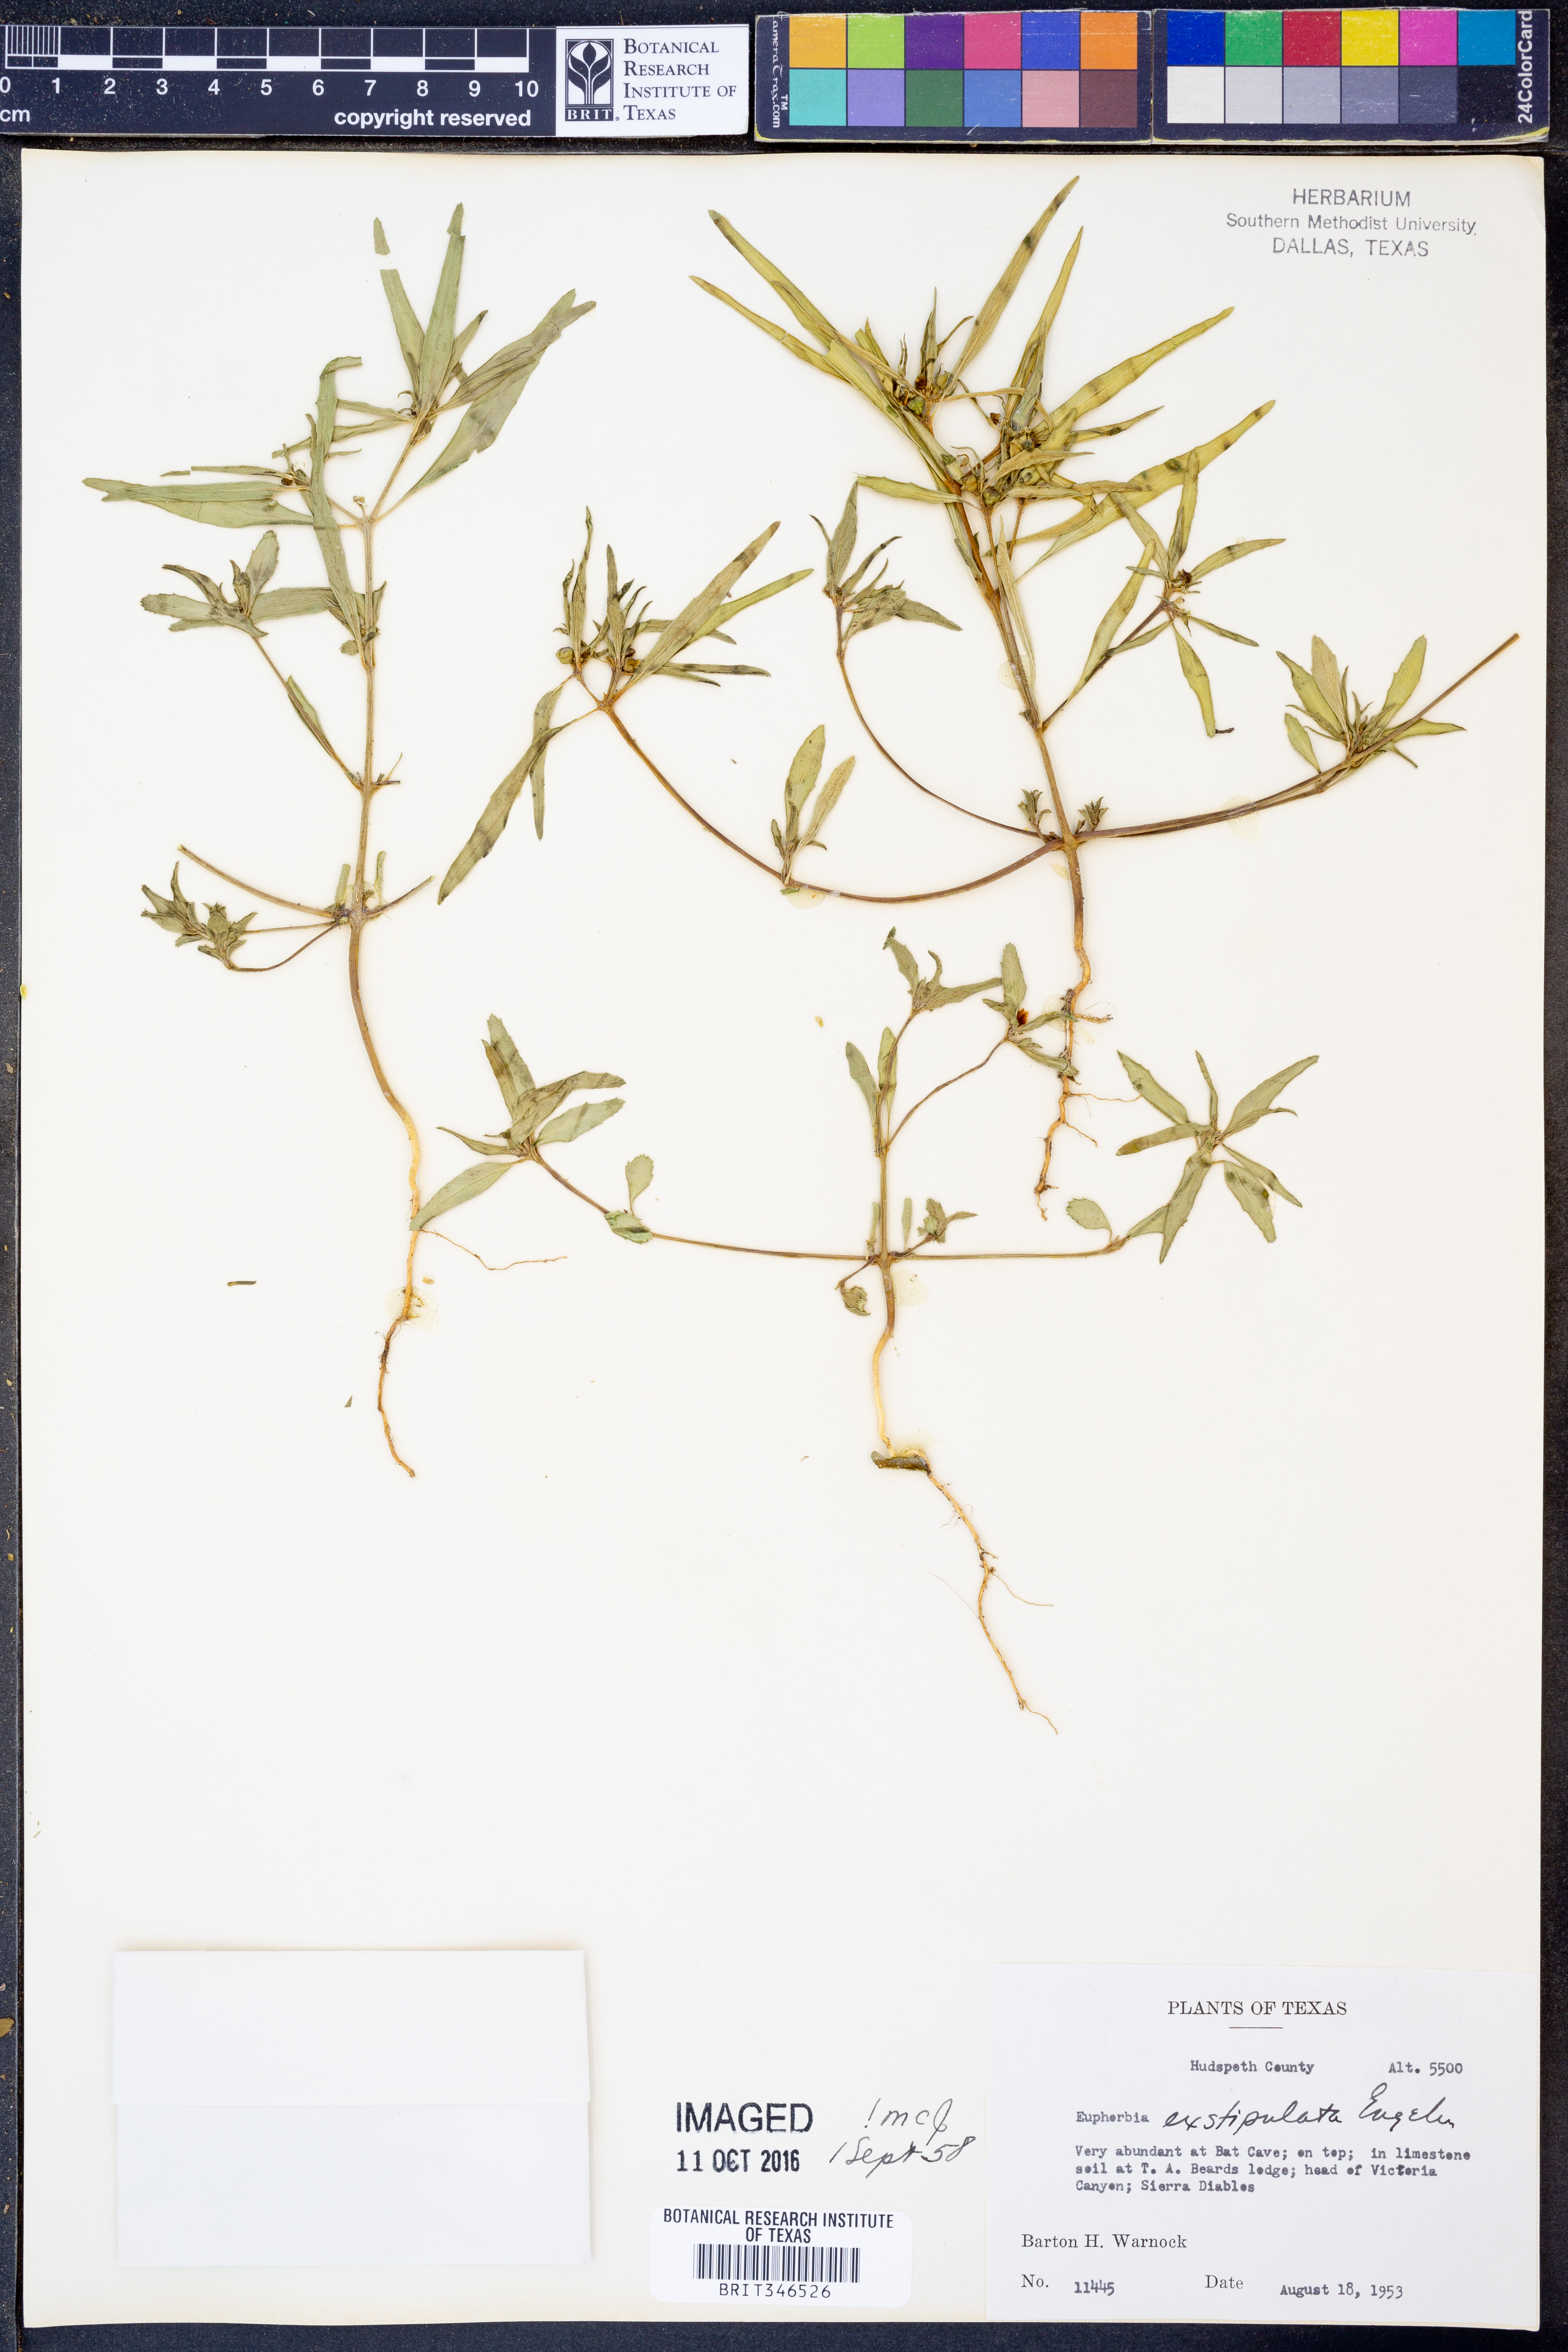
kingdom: Plantae
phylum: Tracheophyta
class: Magnoliopsida
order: Malpighiales
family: Euphorbiaceae
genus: Euphorbia
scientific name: Euphorbia exstipulata
